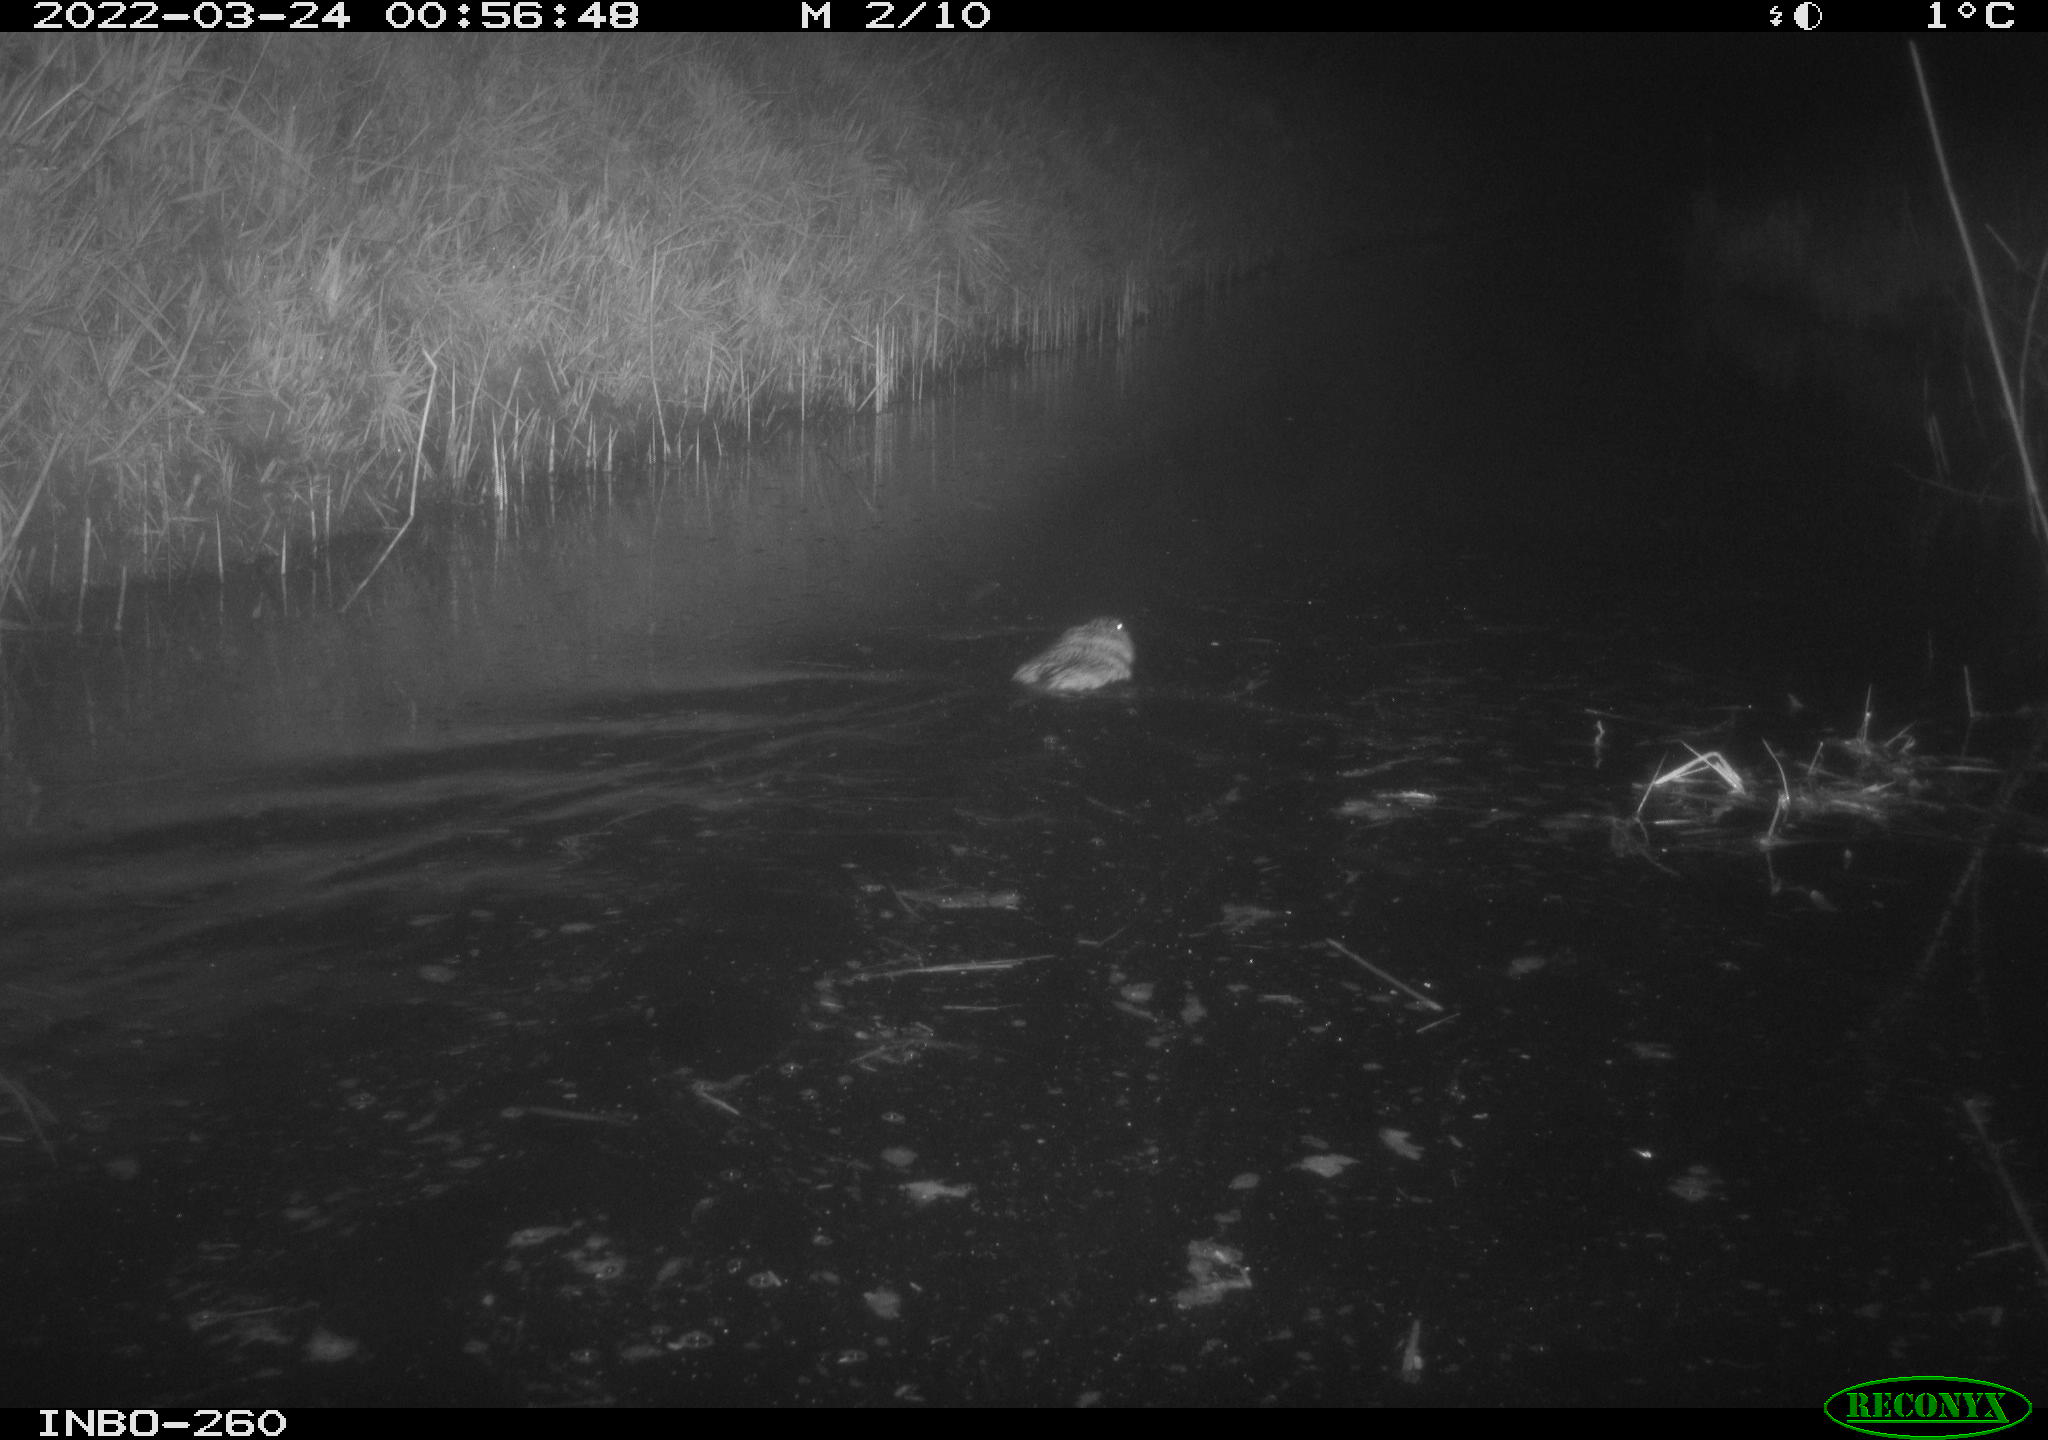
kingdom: Animalia
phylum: Chordata
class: Mammalia
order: Rodentia
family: Cricetidae
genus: Ondatra
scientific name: Ondatra zibethicus
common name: Muskrat
